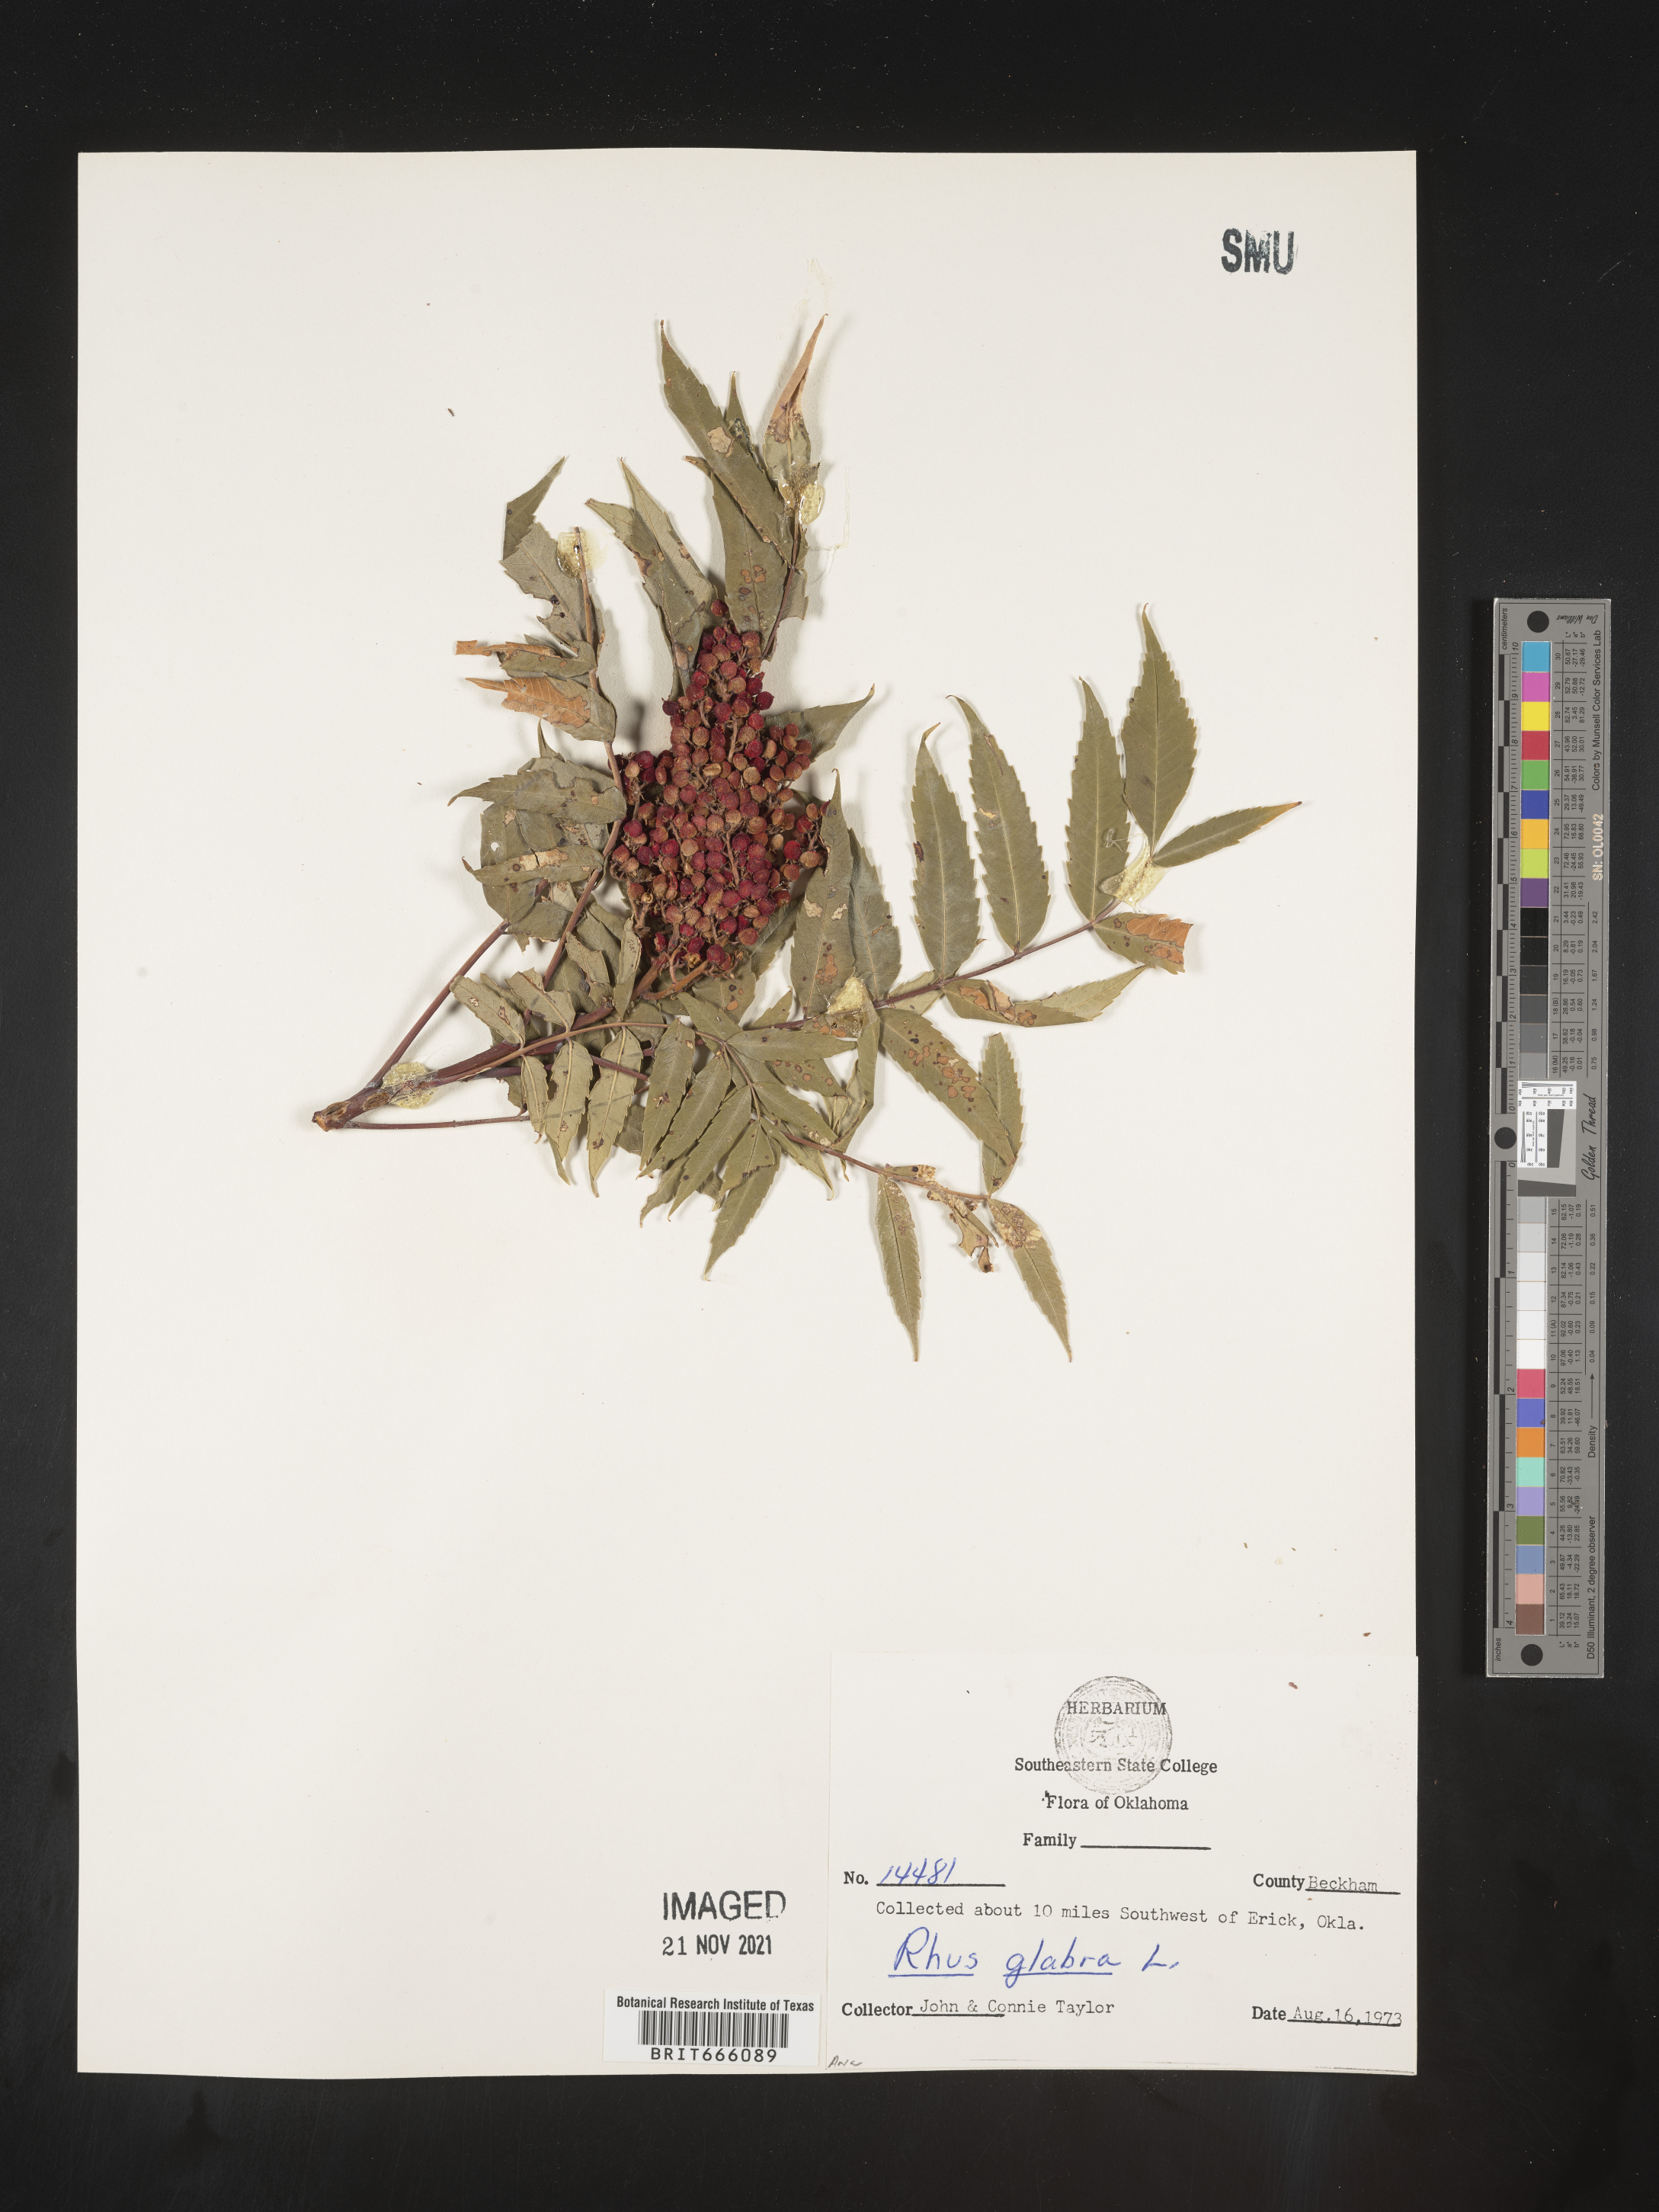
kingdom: Plantae
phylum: Tracheophyta
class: Magnoliopsida
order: Sapindales
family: Anacardiaceae
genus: Rhus
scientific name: Rhus glabra
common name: Scarlet sumac
